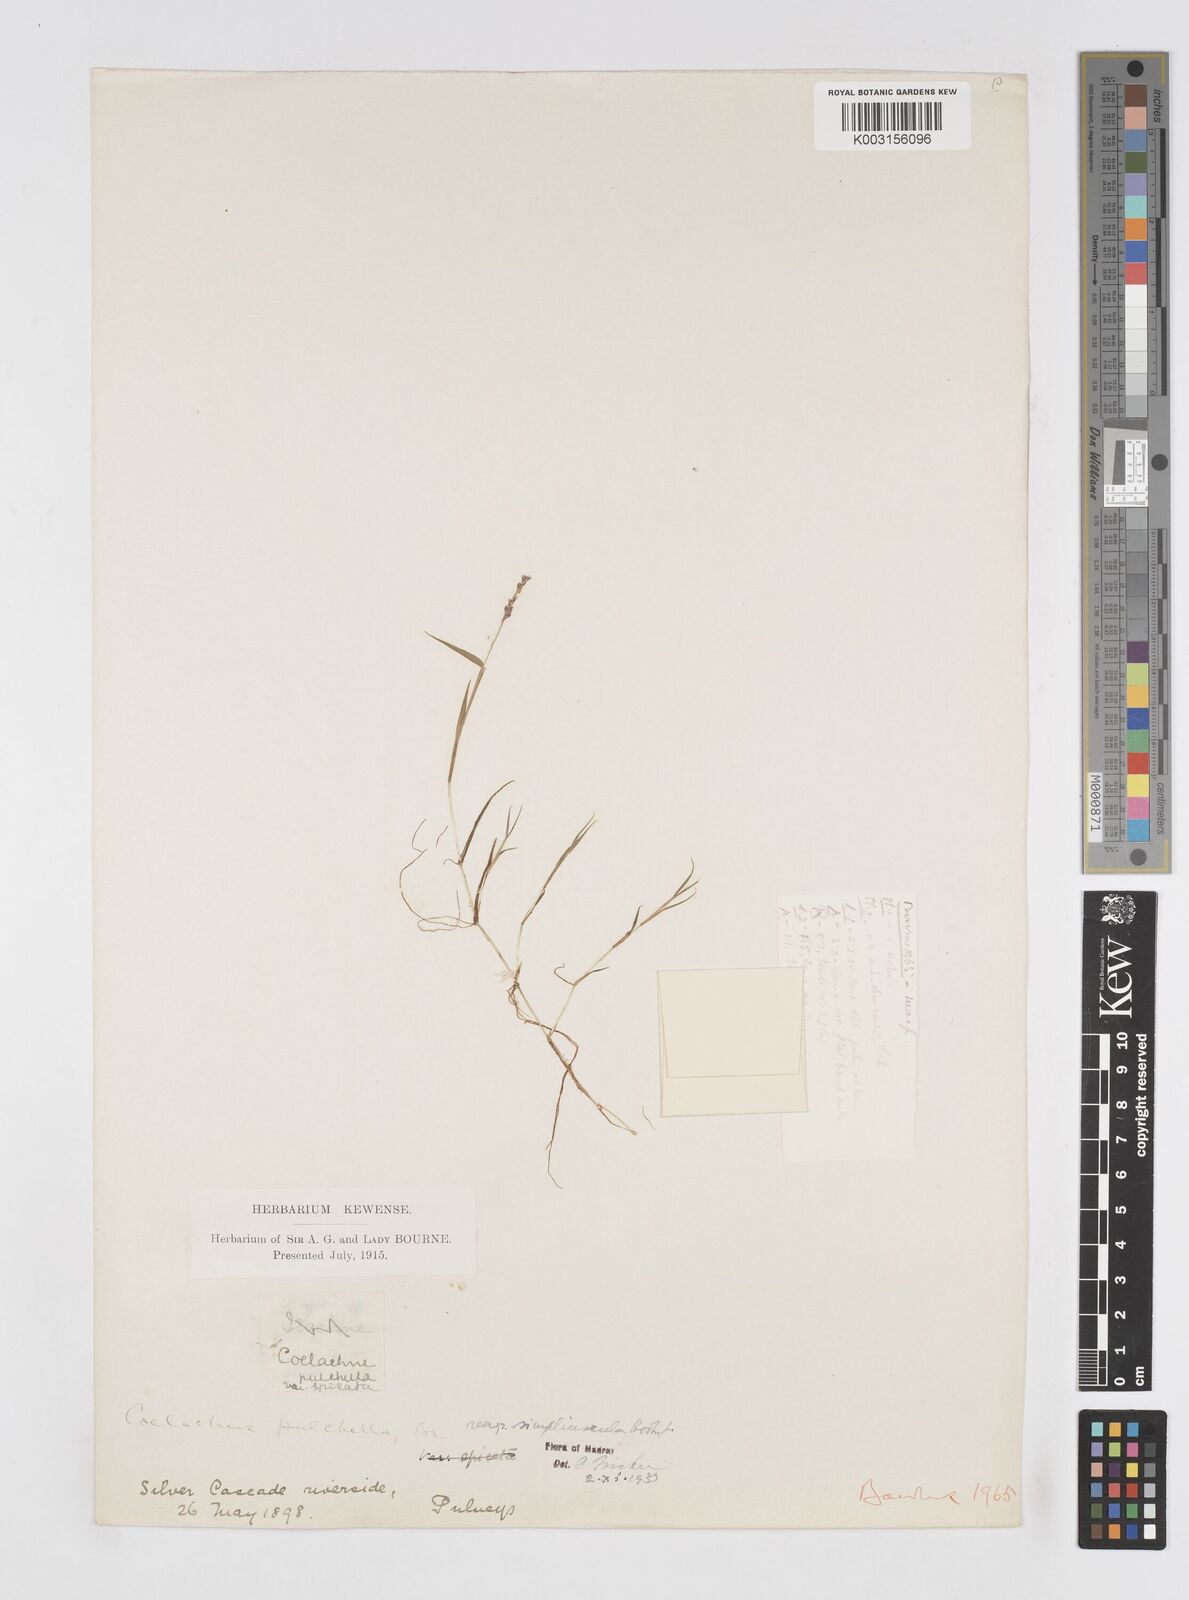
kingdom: Plantae
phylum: Tracheophyta
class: Liliopsida
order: Poales
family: Poaceae
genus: Coelachne
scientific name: Coelachne simpliciuscula
